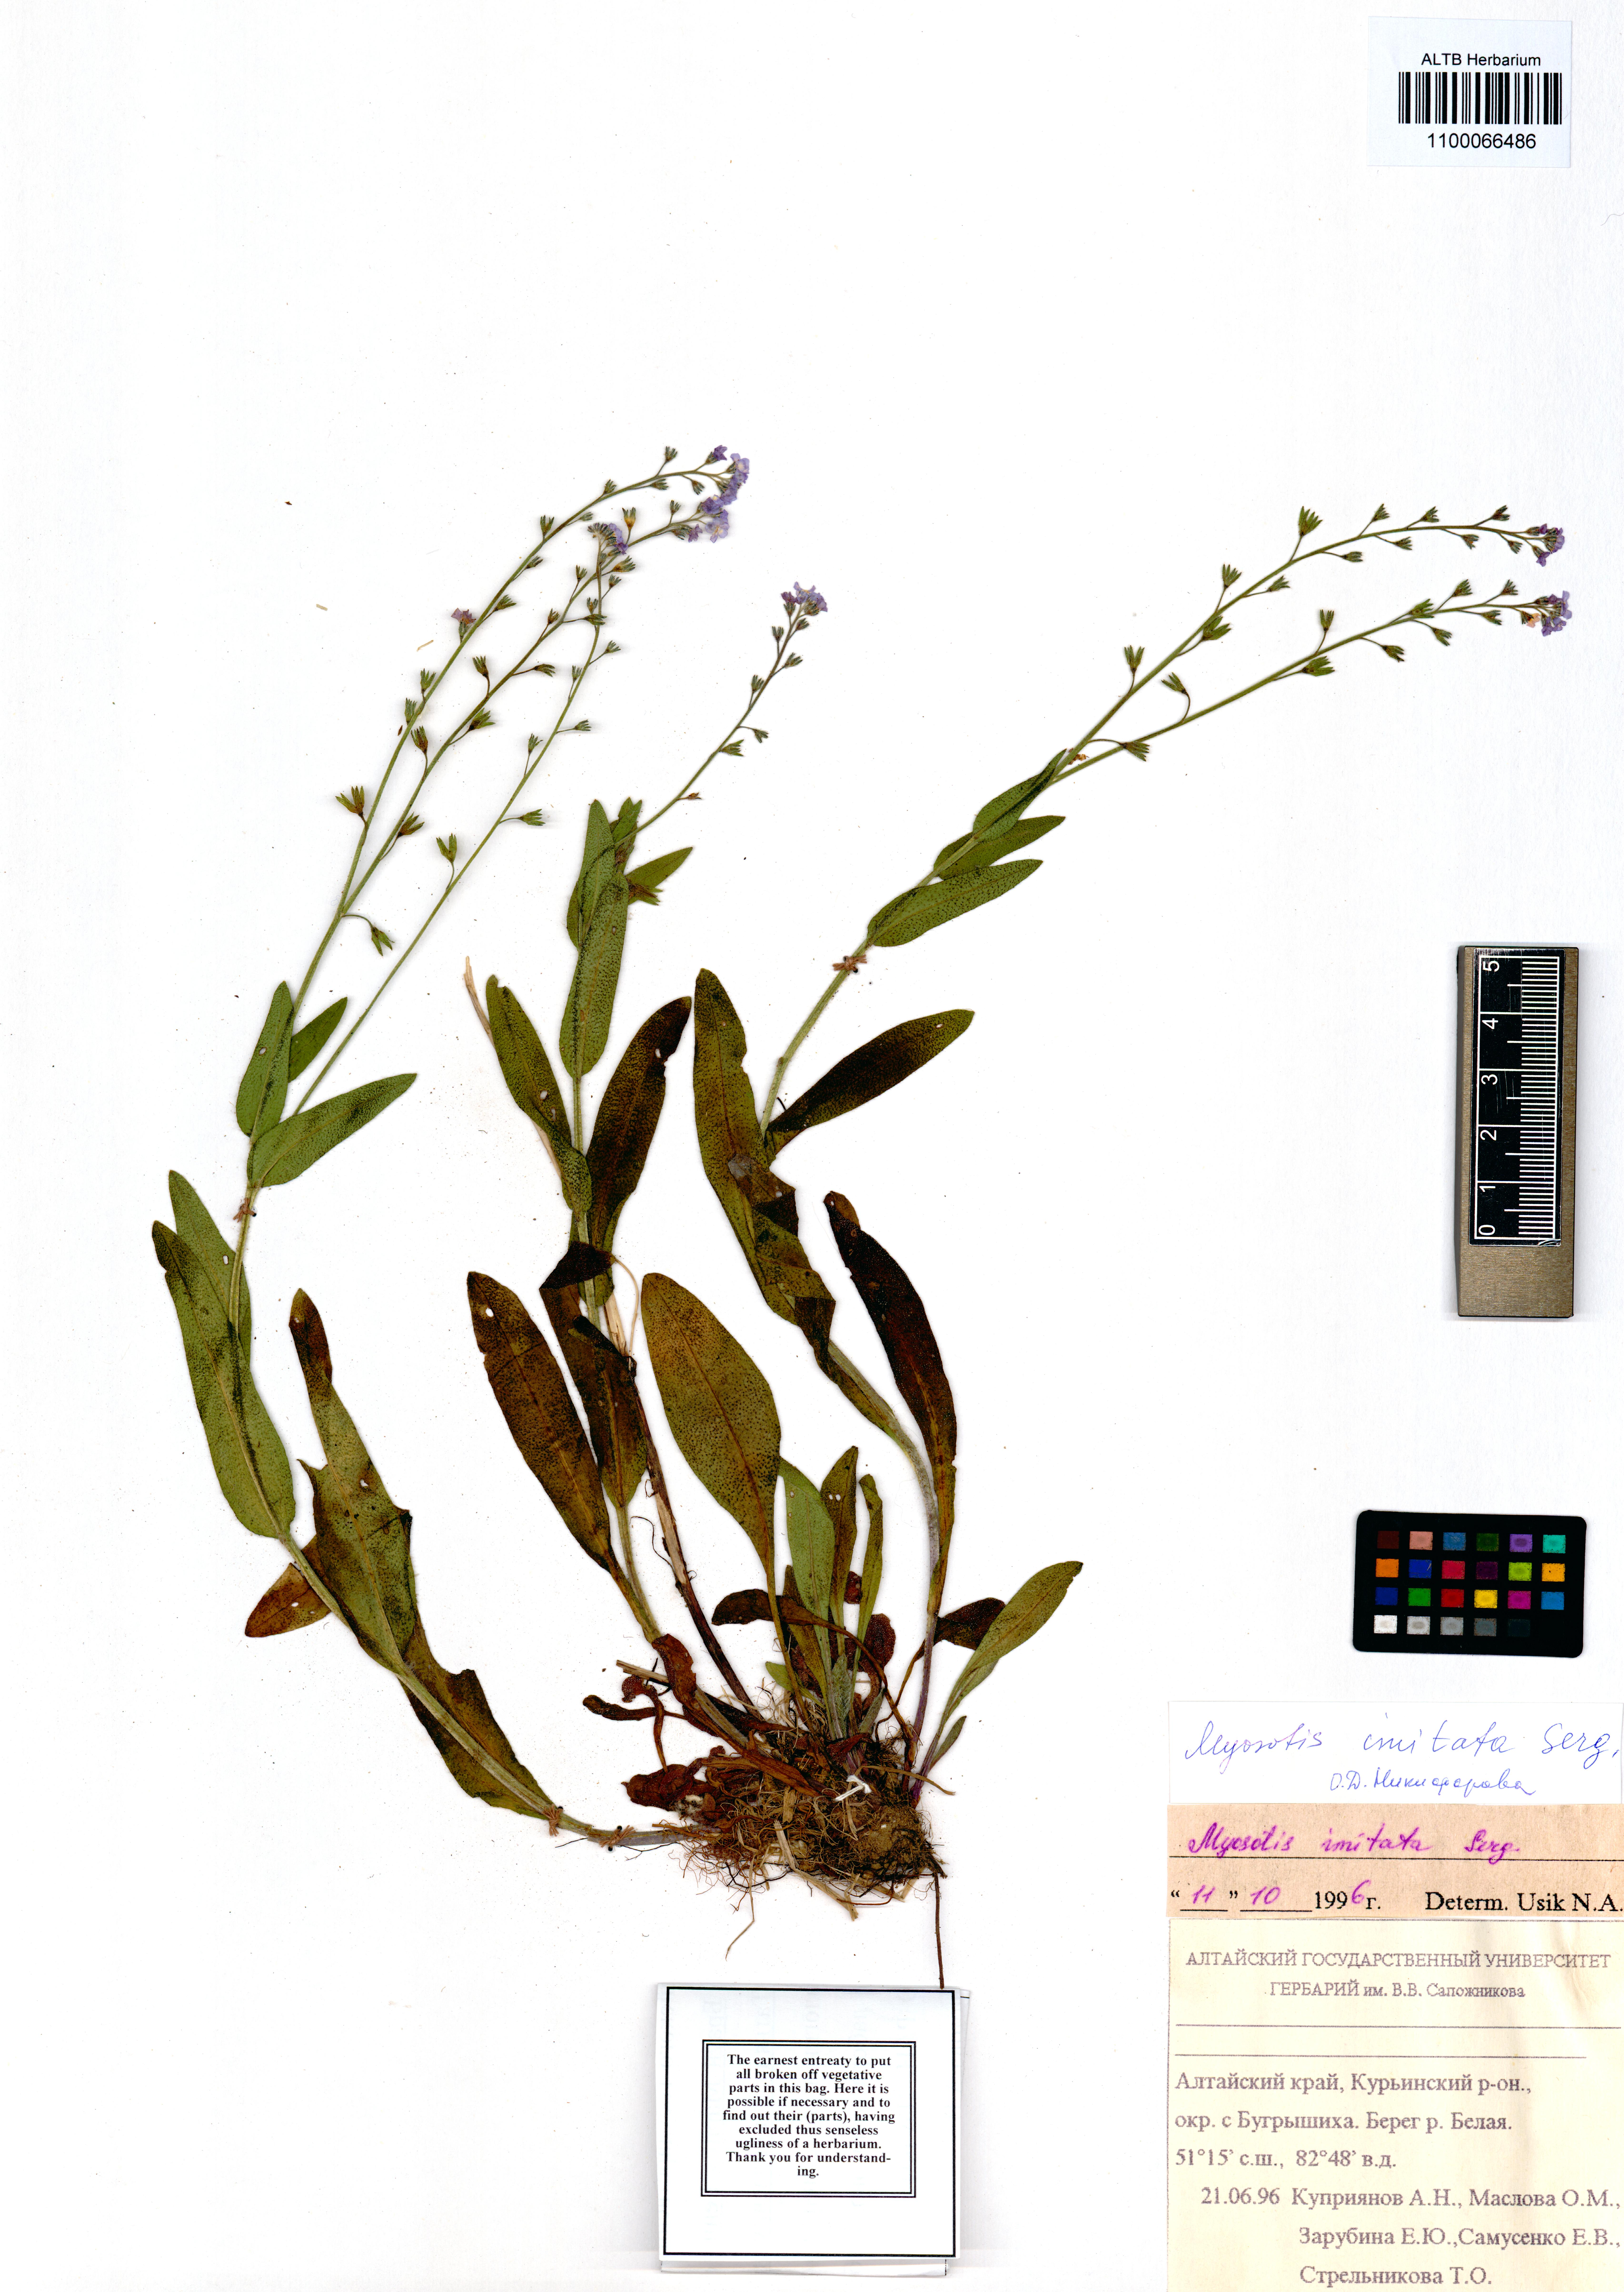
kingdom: Plantae
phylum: Tracheophyta
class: Magnoliopsida
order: Boraginales
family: Boraginaceae
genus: Myosotis
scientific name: Myosotis imitata
